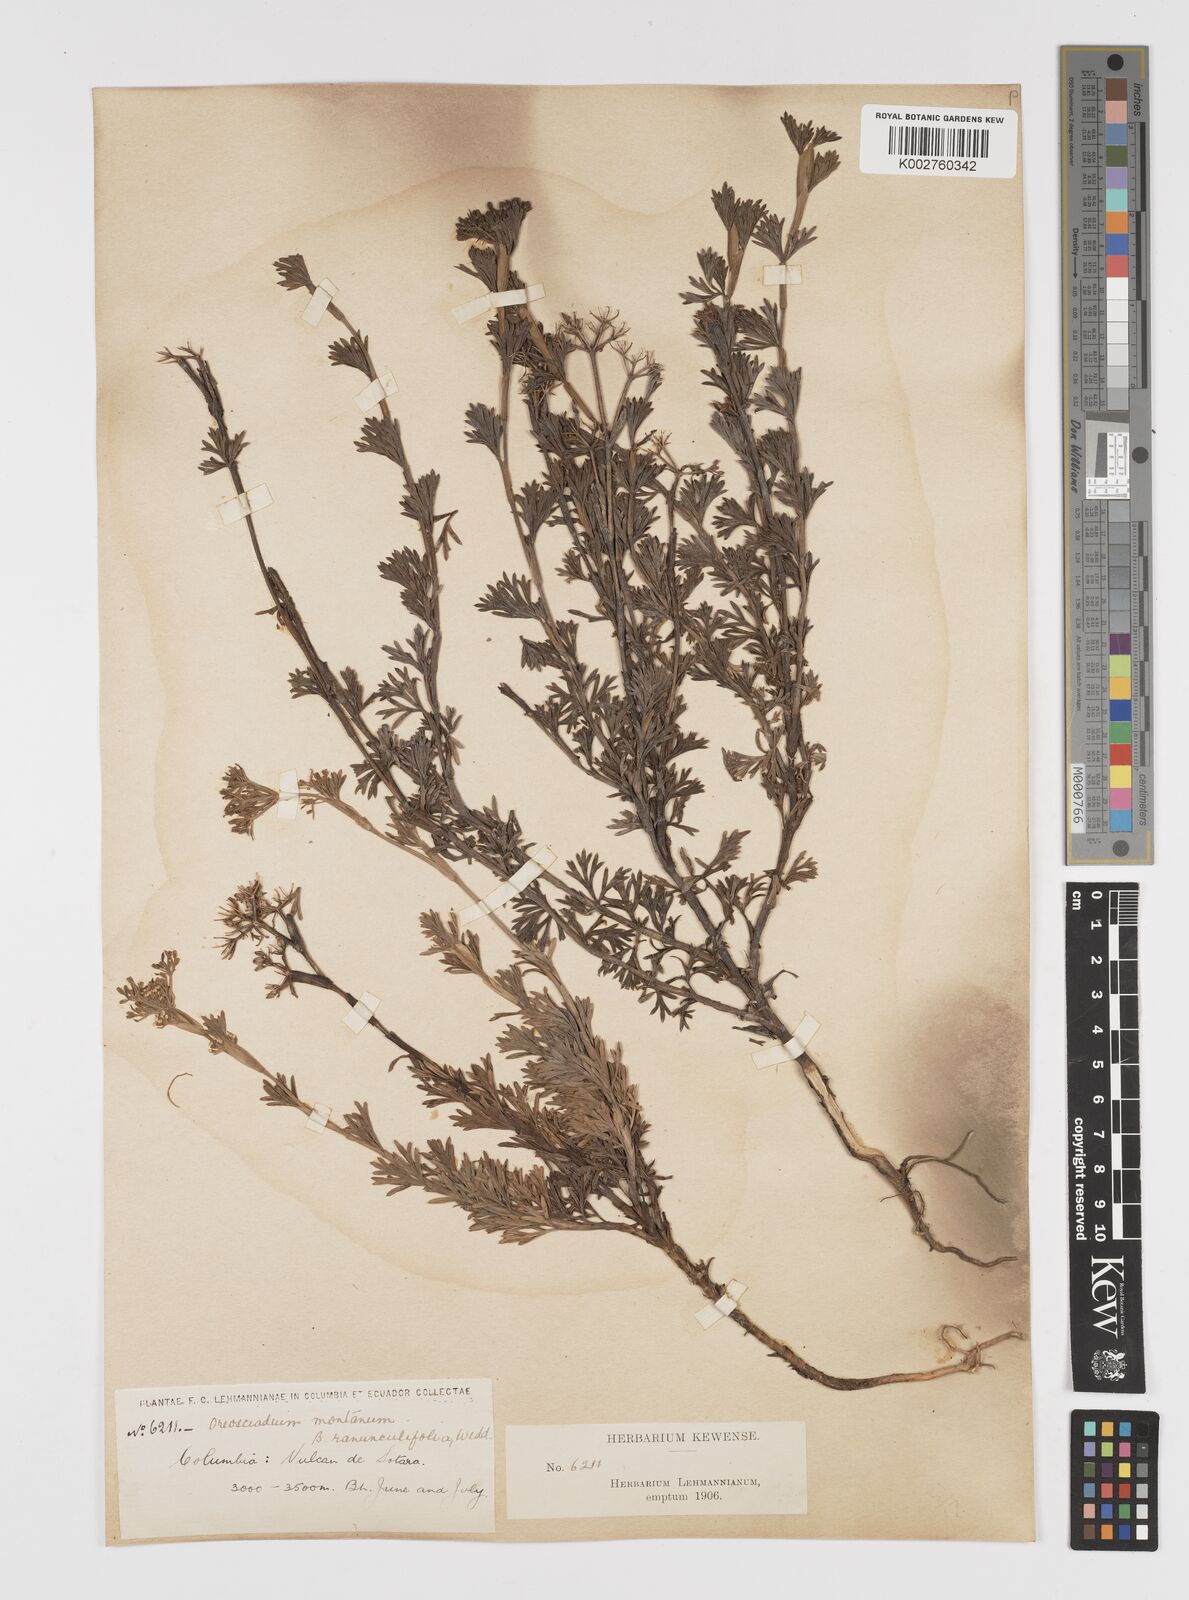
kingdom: Plantae
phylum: Tracheophyta
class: Magnoliopsida
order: Apiales
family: Apiaceae
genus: Niphogeton
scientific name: Niphogeton glaucescens
